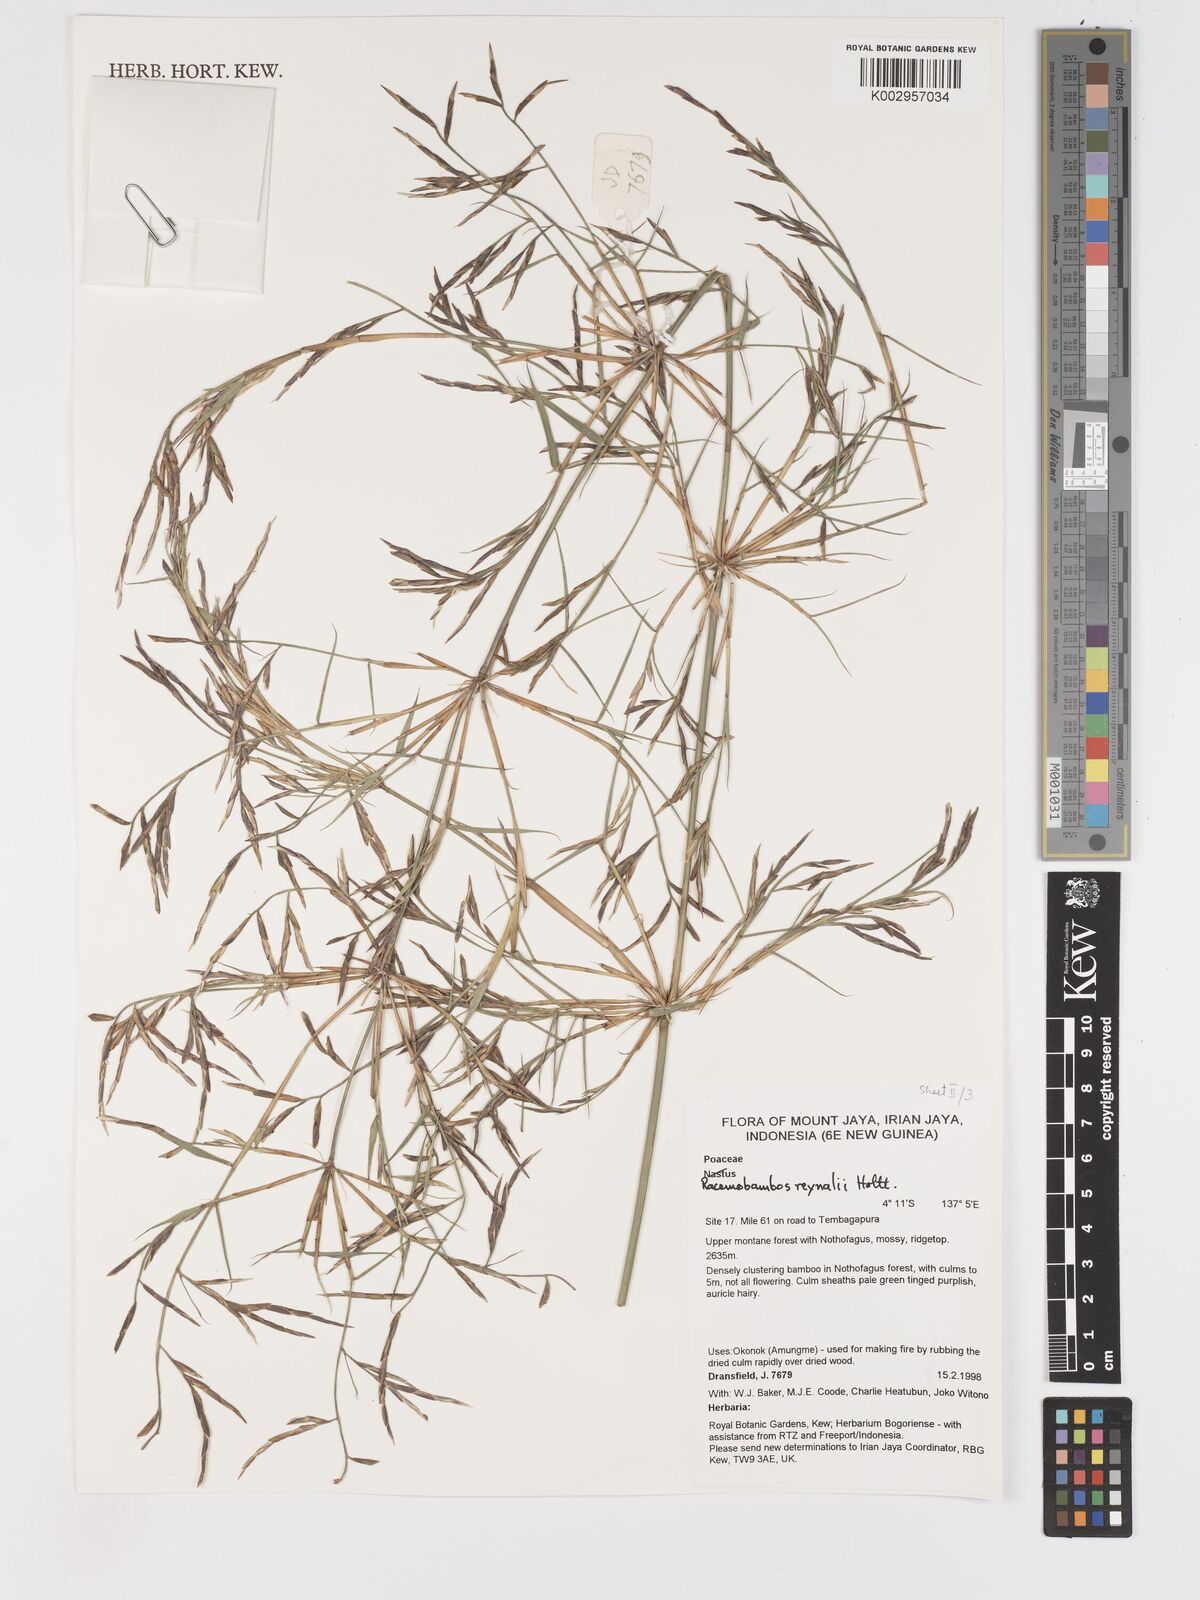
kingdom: Plantae
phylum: Tracheophyta
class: Liliopsida
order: Poales
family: Poaceae
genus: Racemobambos
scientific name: Racemobambos raynalii
